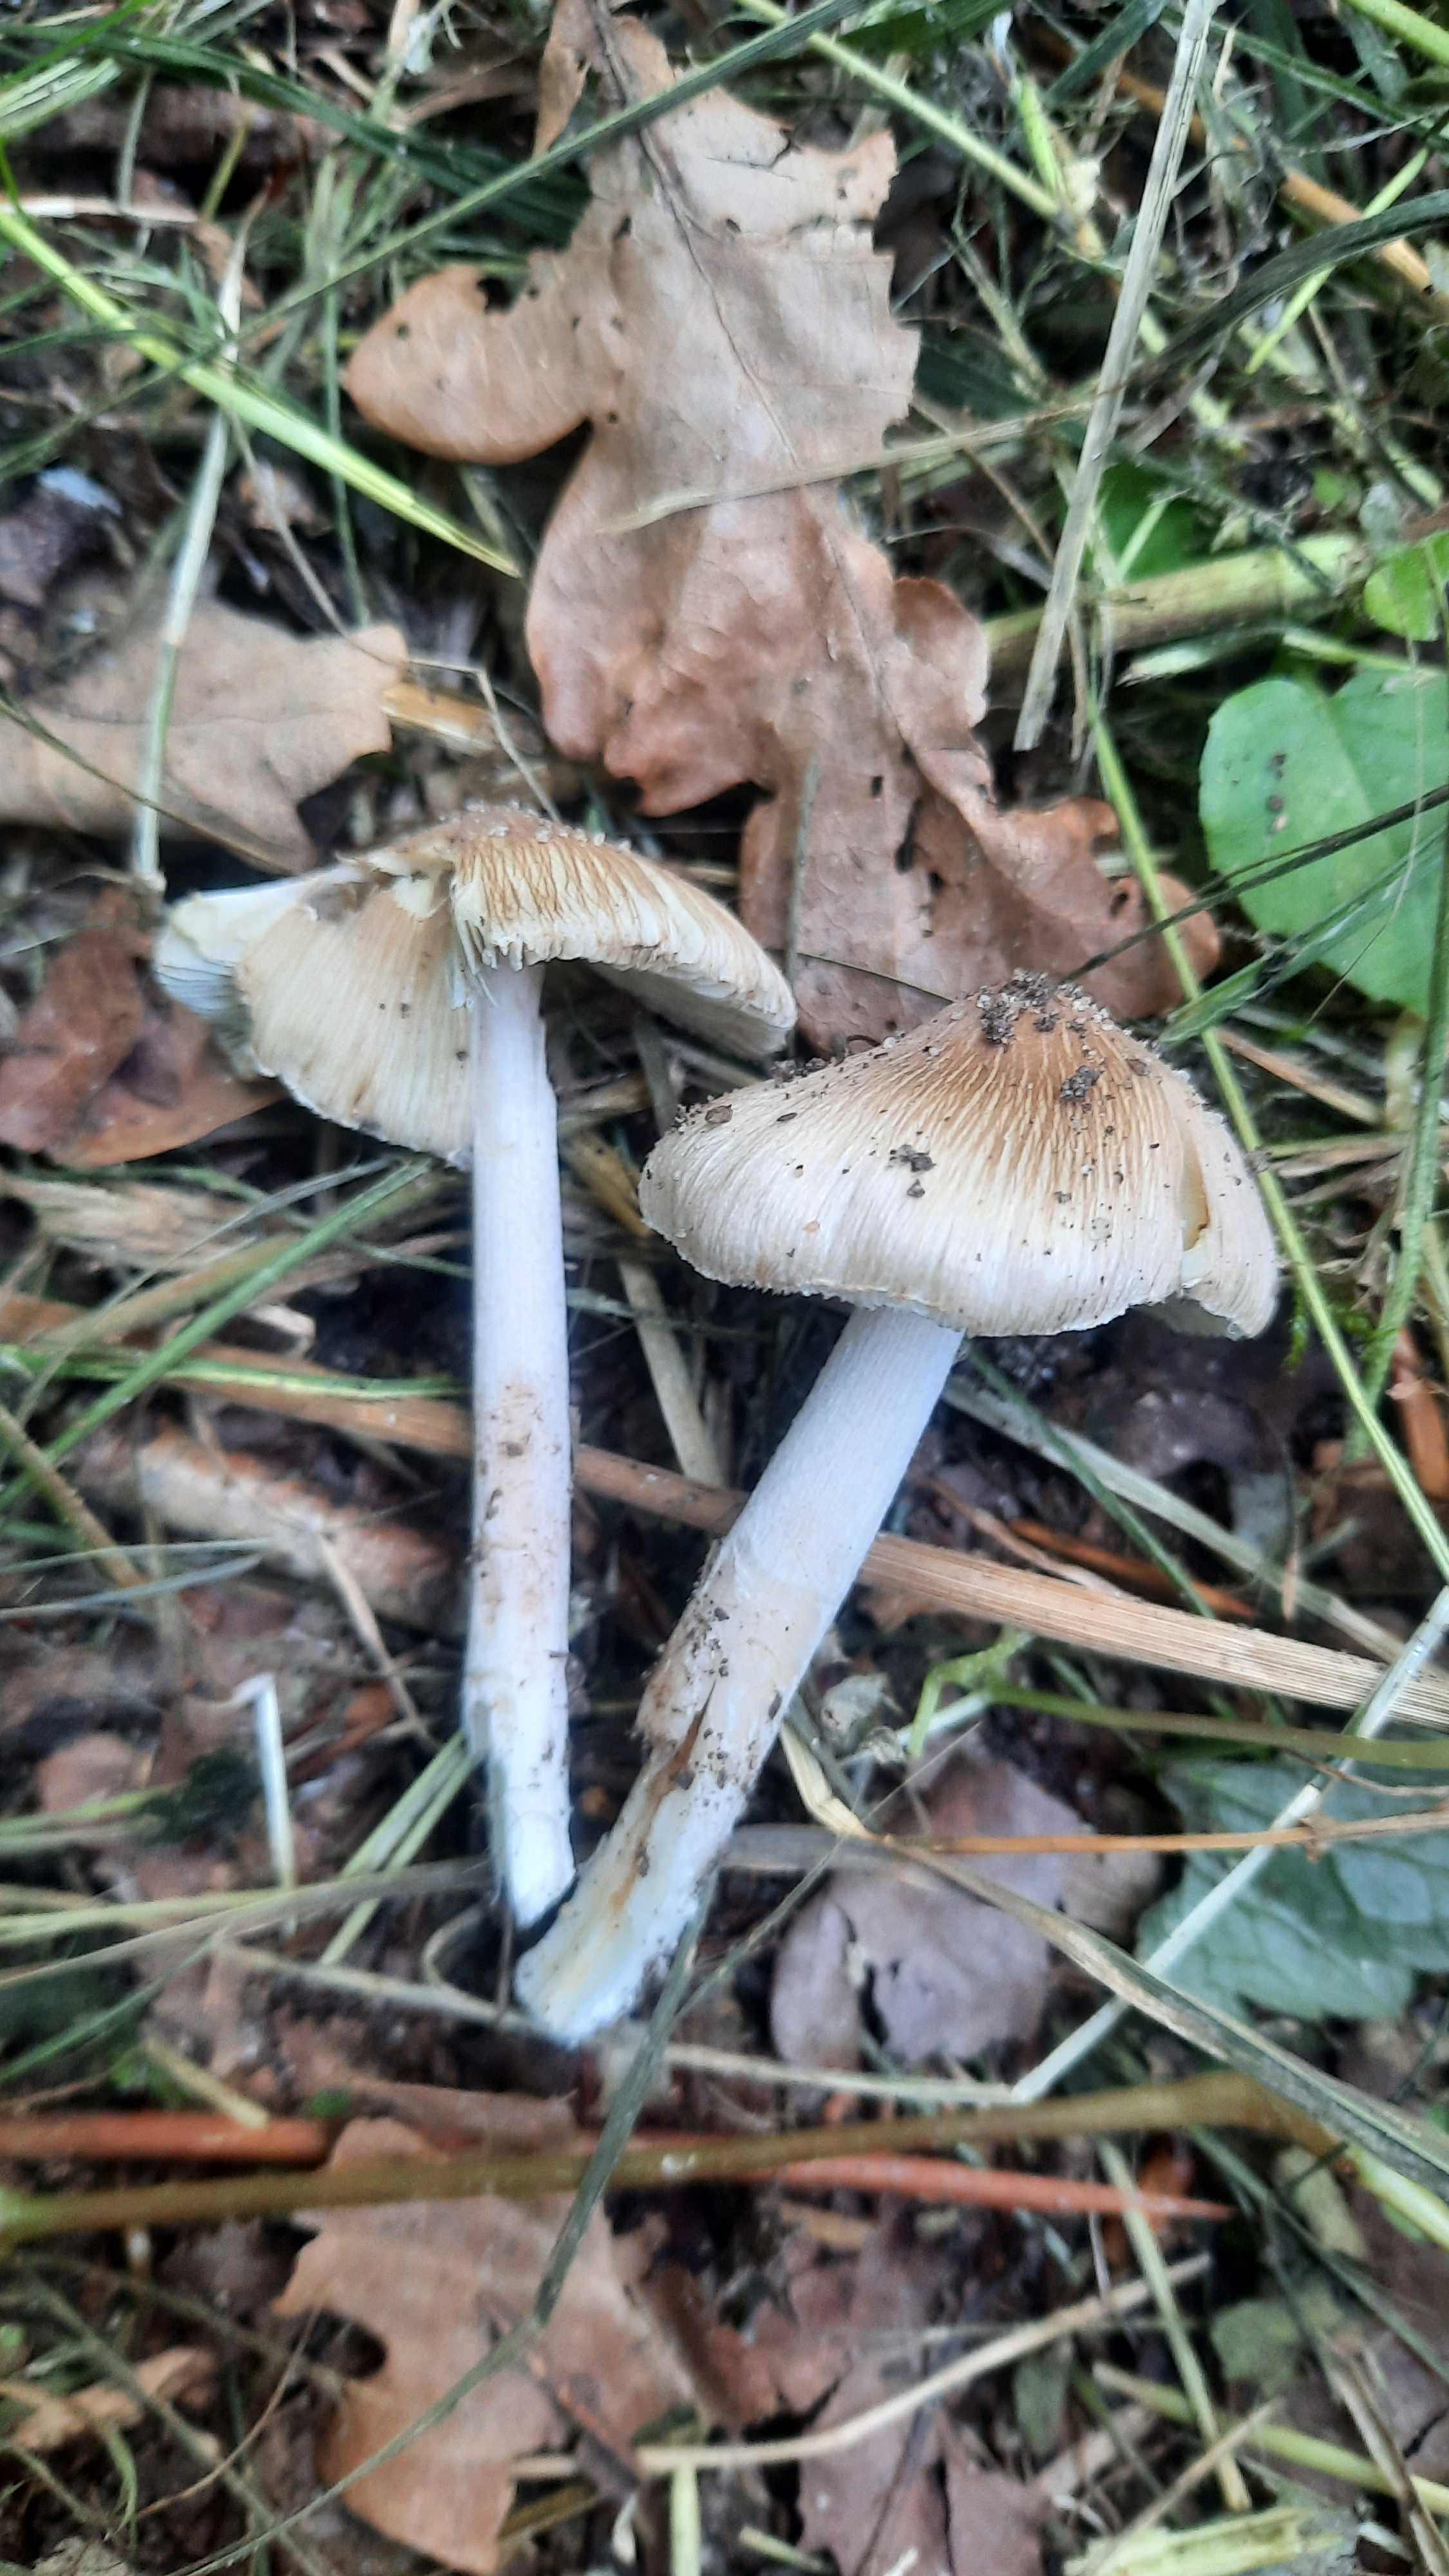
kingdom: Fungi
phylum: Basidiomycota
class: Agaricomycetes
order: Agaricales
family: Inocybaceae
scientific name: Inocybaceae
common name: trævlhatfamilien
